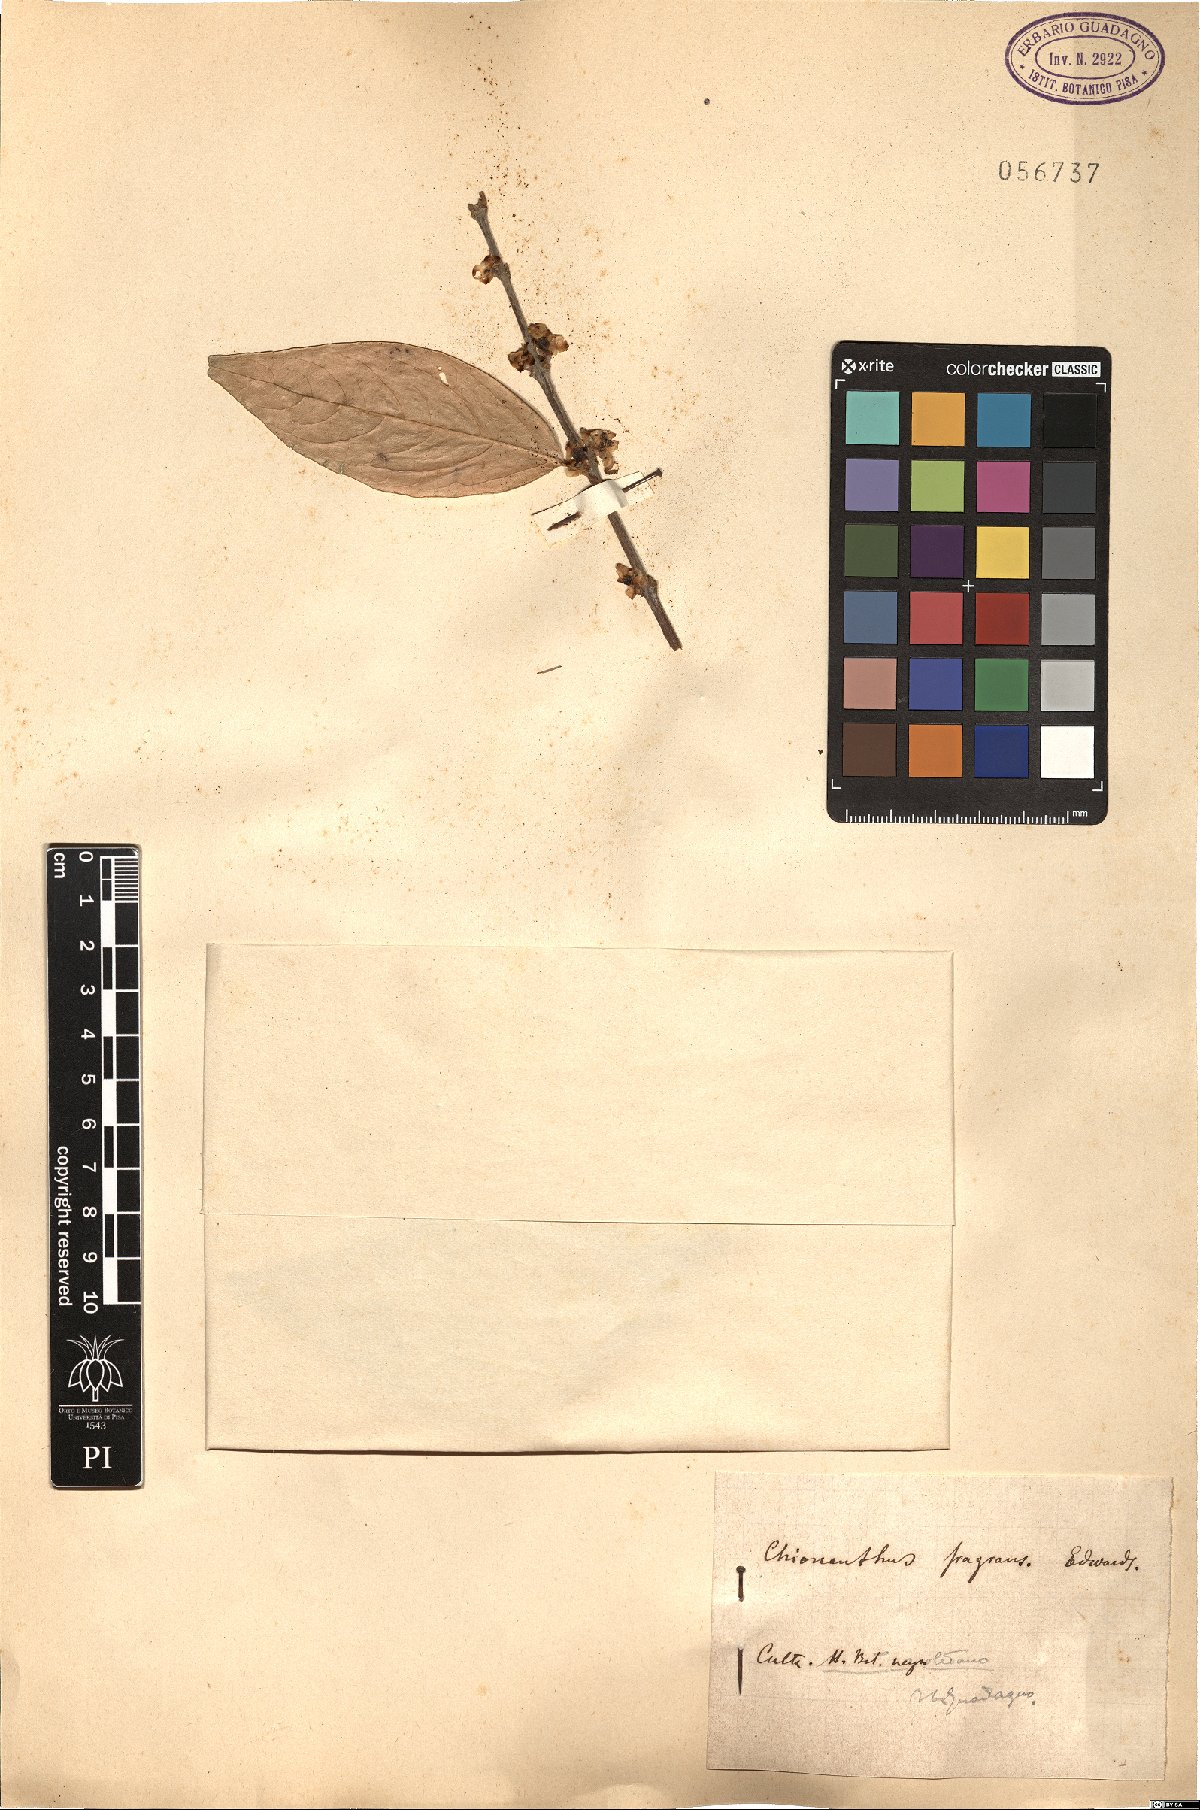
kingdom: Plantae
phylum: Tracheophyta
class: Magnoliopsida
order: Lamiales
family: Oleaceae
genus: Chionanthus
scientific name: Chionanthus virginicus
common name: American fringetree
